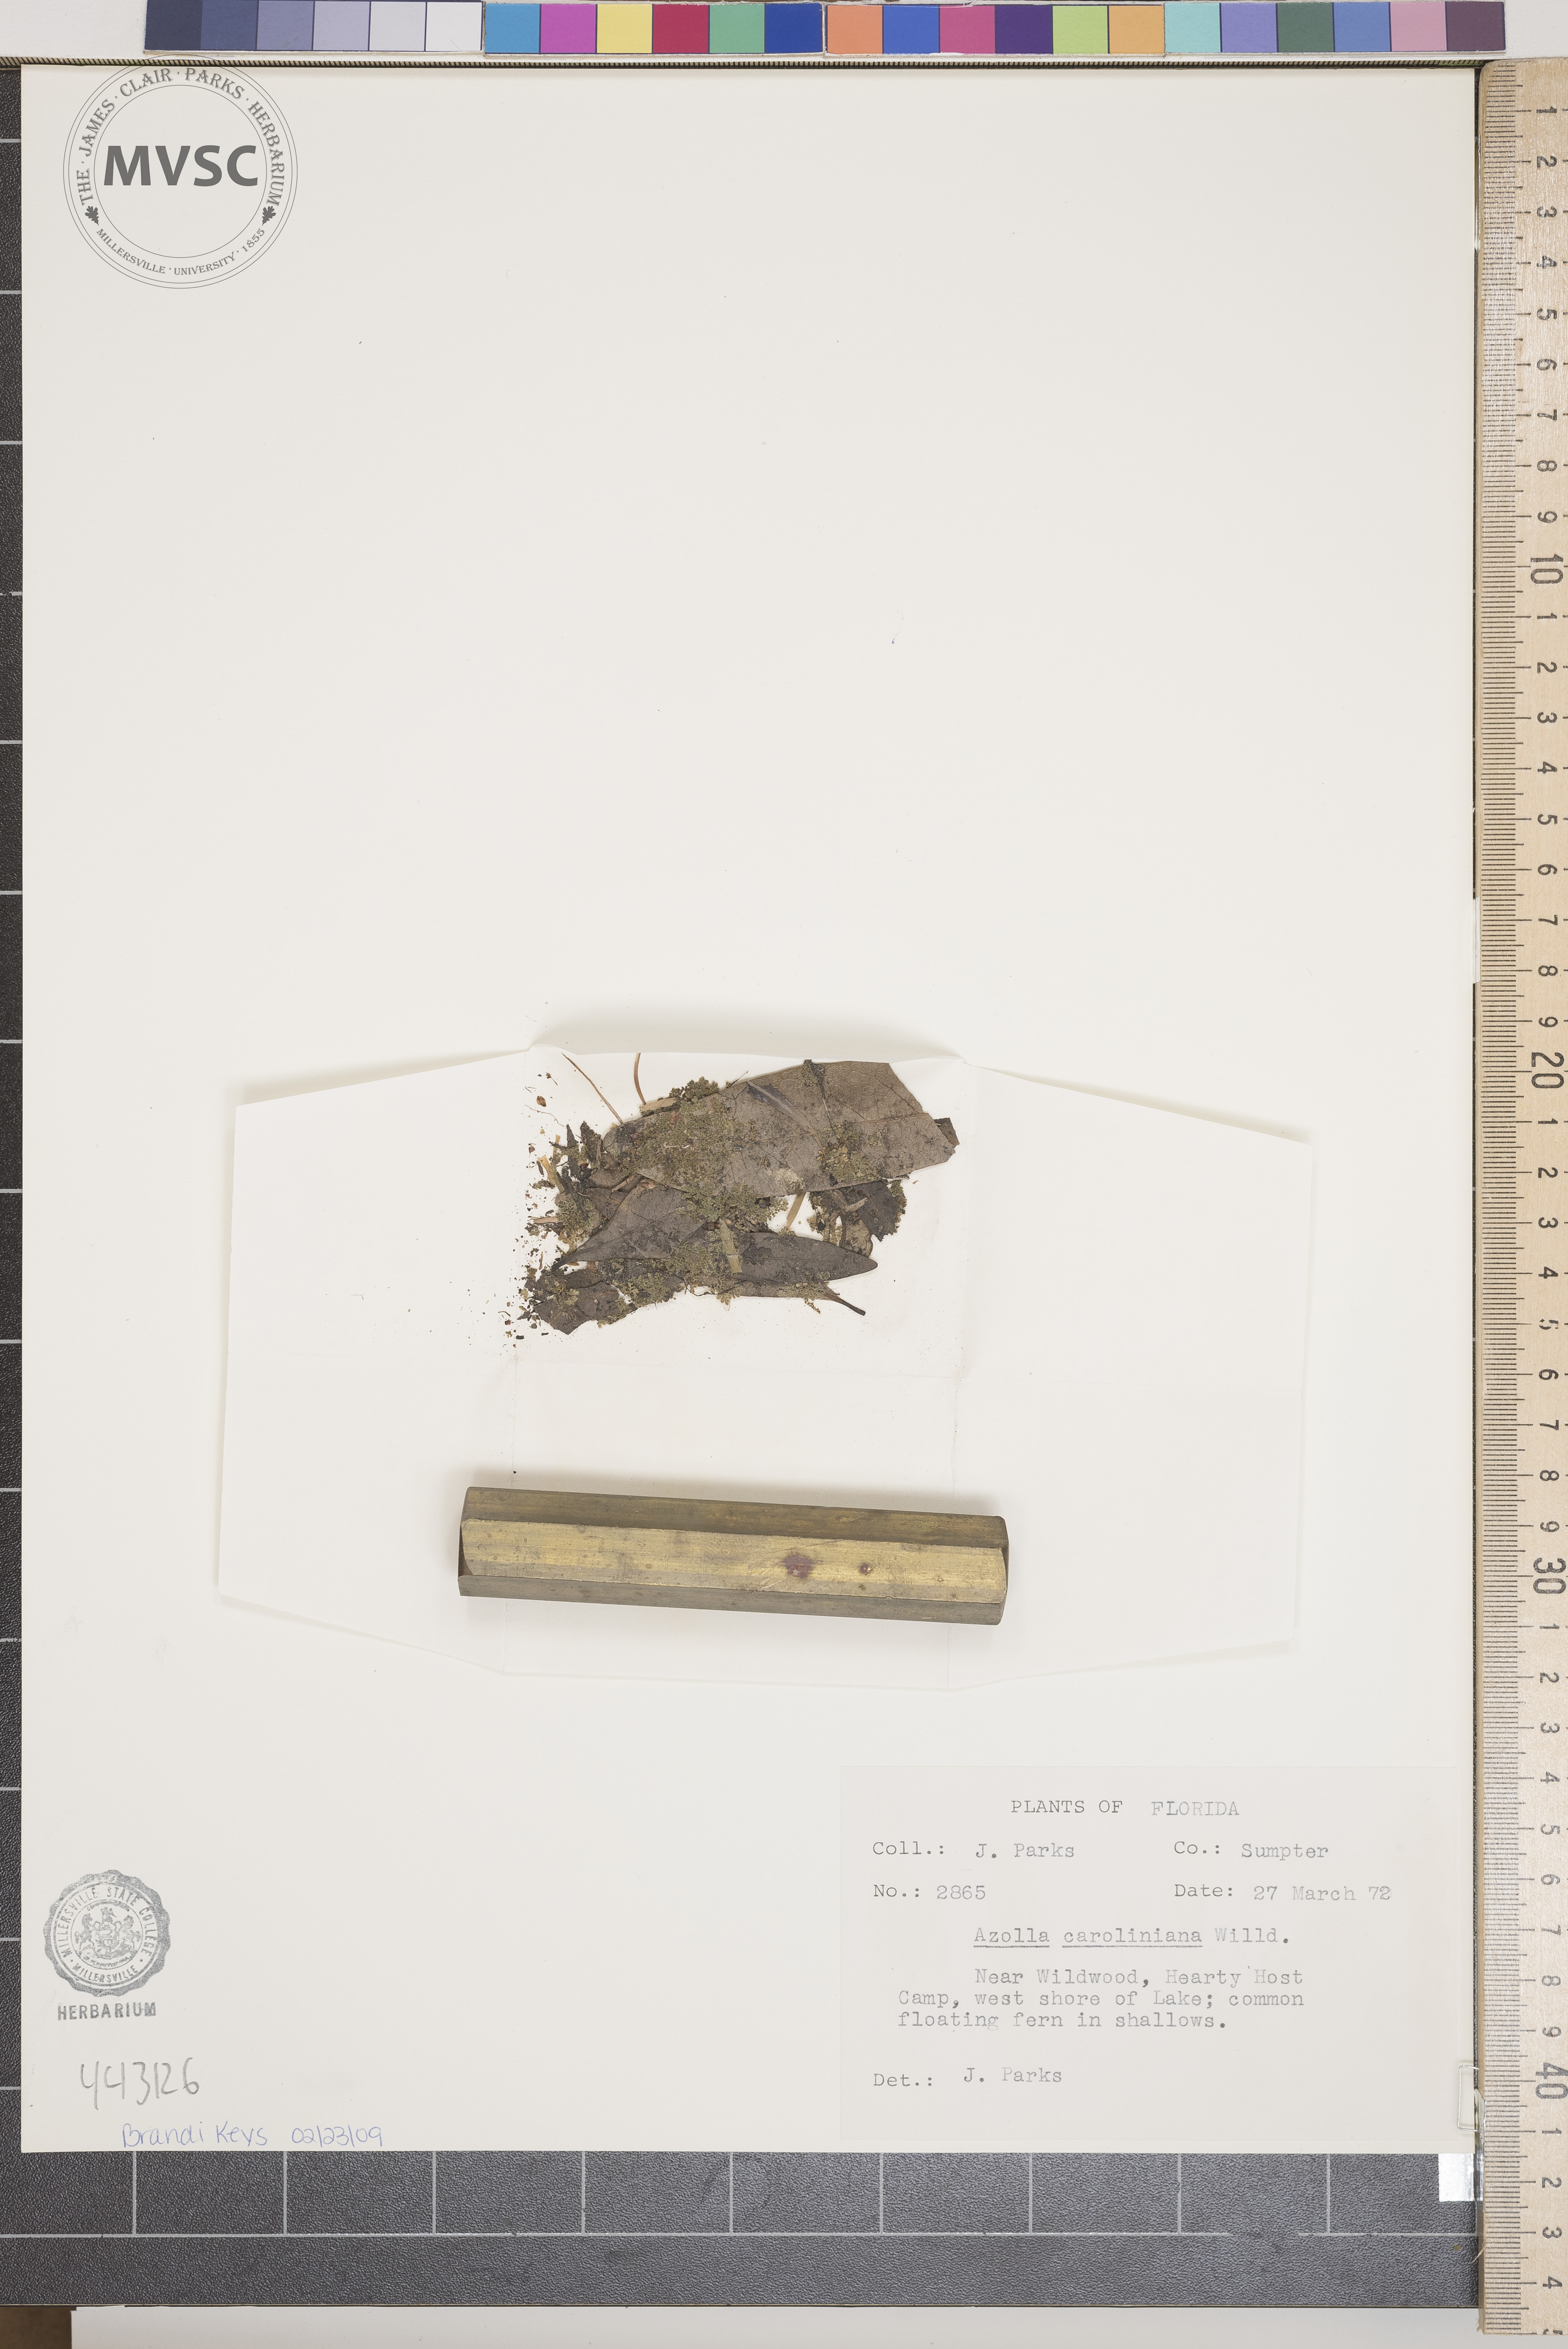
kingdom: Plantae
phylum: Tracheophyta
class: Polypodiopsida
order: Salviniales
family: Salviniaceae
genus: Azolla
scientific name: Azolla caroliniana
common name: Carolina mosquitofern
